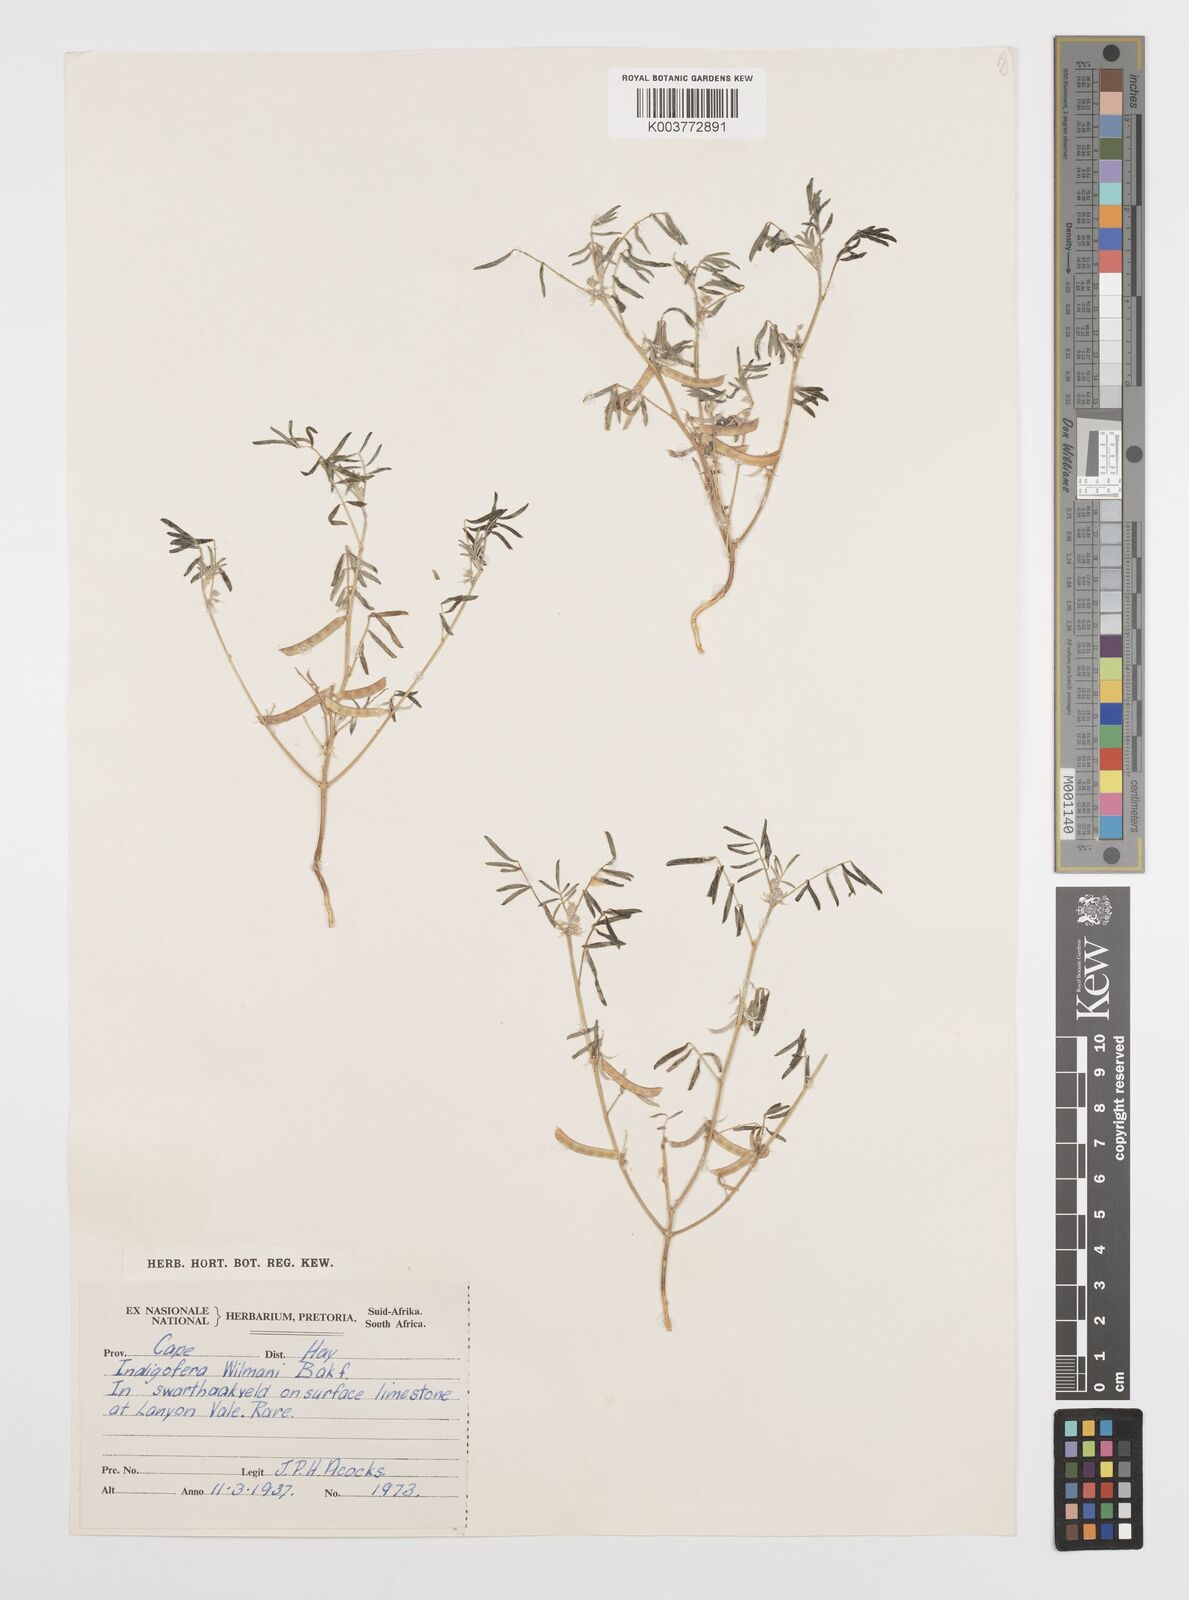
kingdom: Plantae
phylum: Tracheophyta
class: Magnoliopsida
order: Fabales
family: Fabaceae
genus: Indigofera
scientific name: Indigofera damarana
